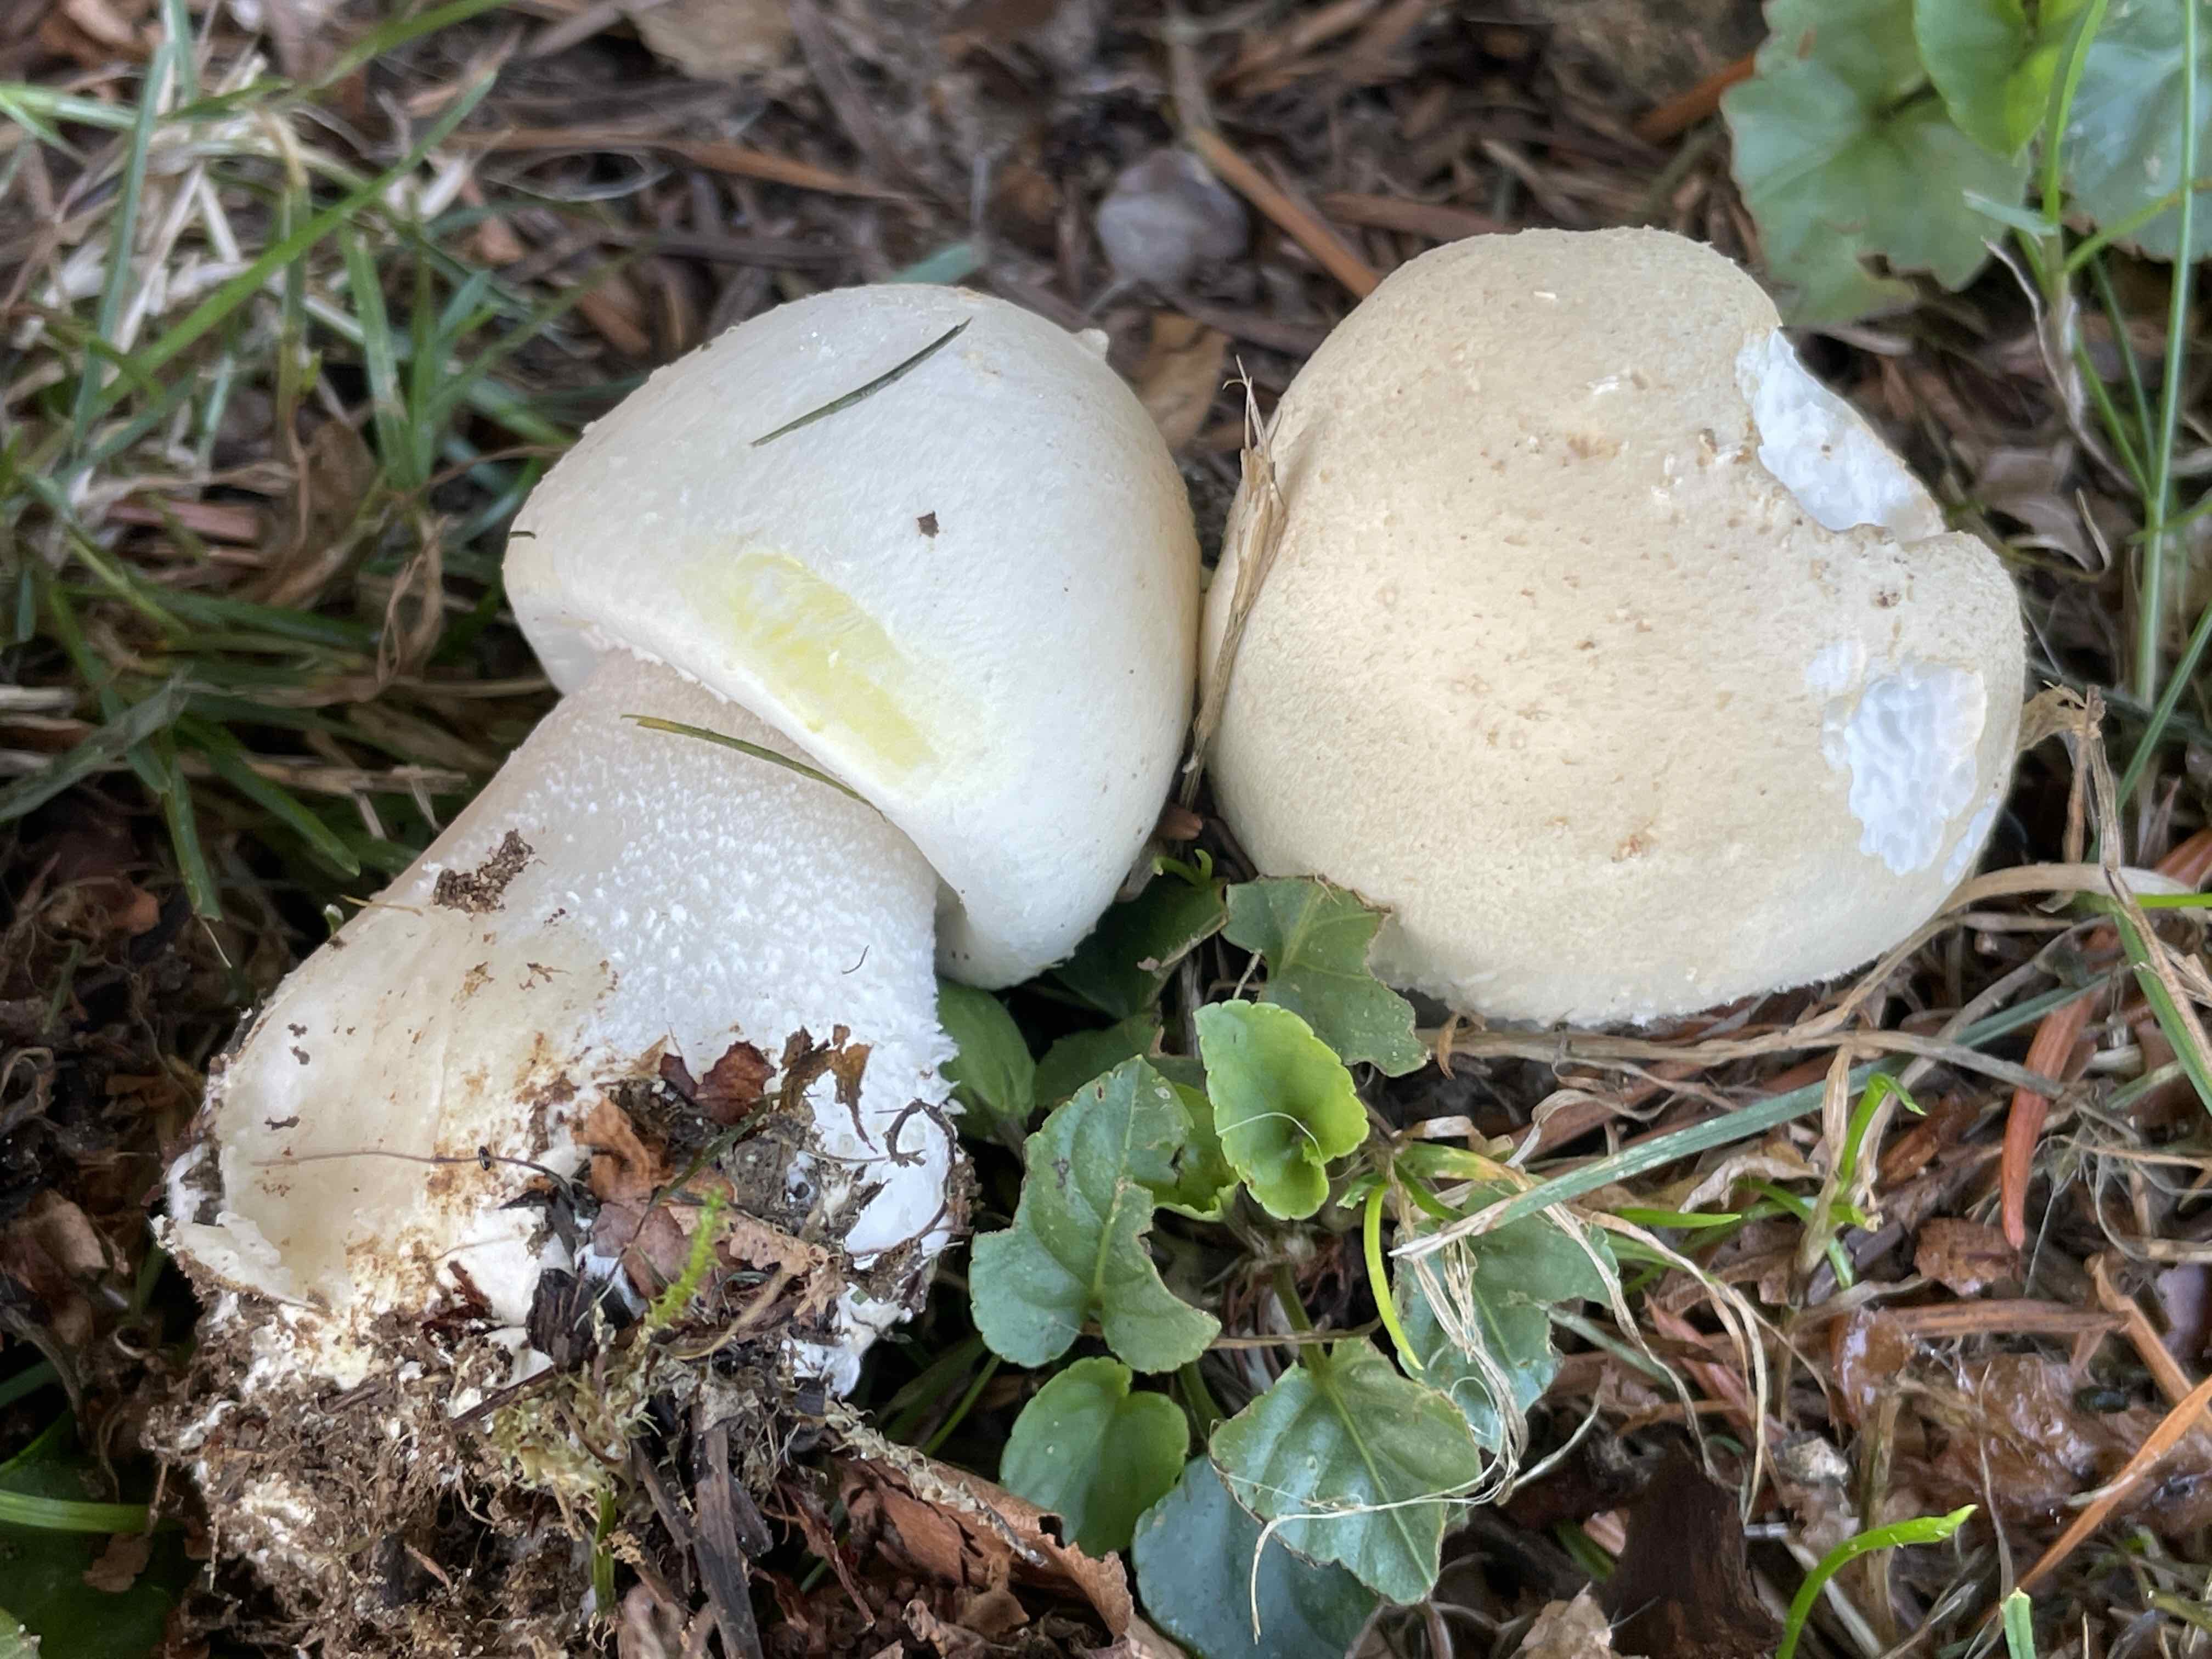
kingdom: Fungi
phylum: Basidiomycota
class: Agaricomycetes
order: Agaricales
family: Agaricaceae
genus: Agaricus
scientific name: Agaricus arvensis
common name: ager-champignon
